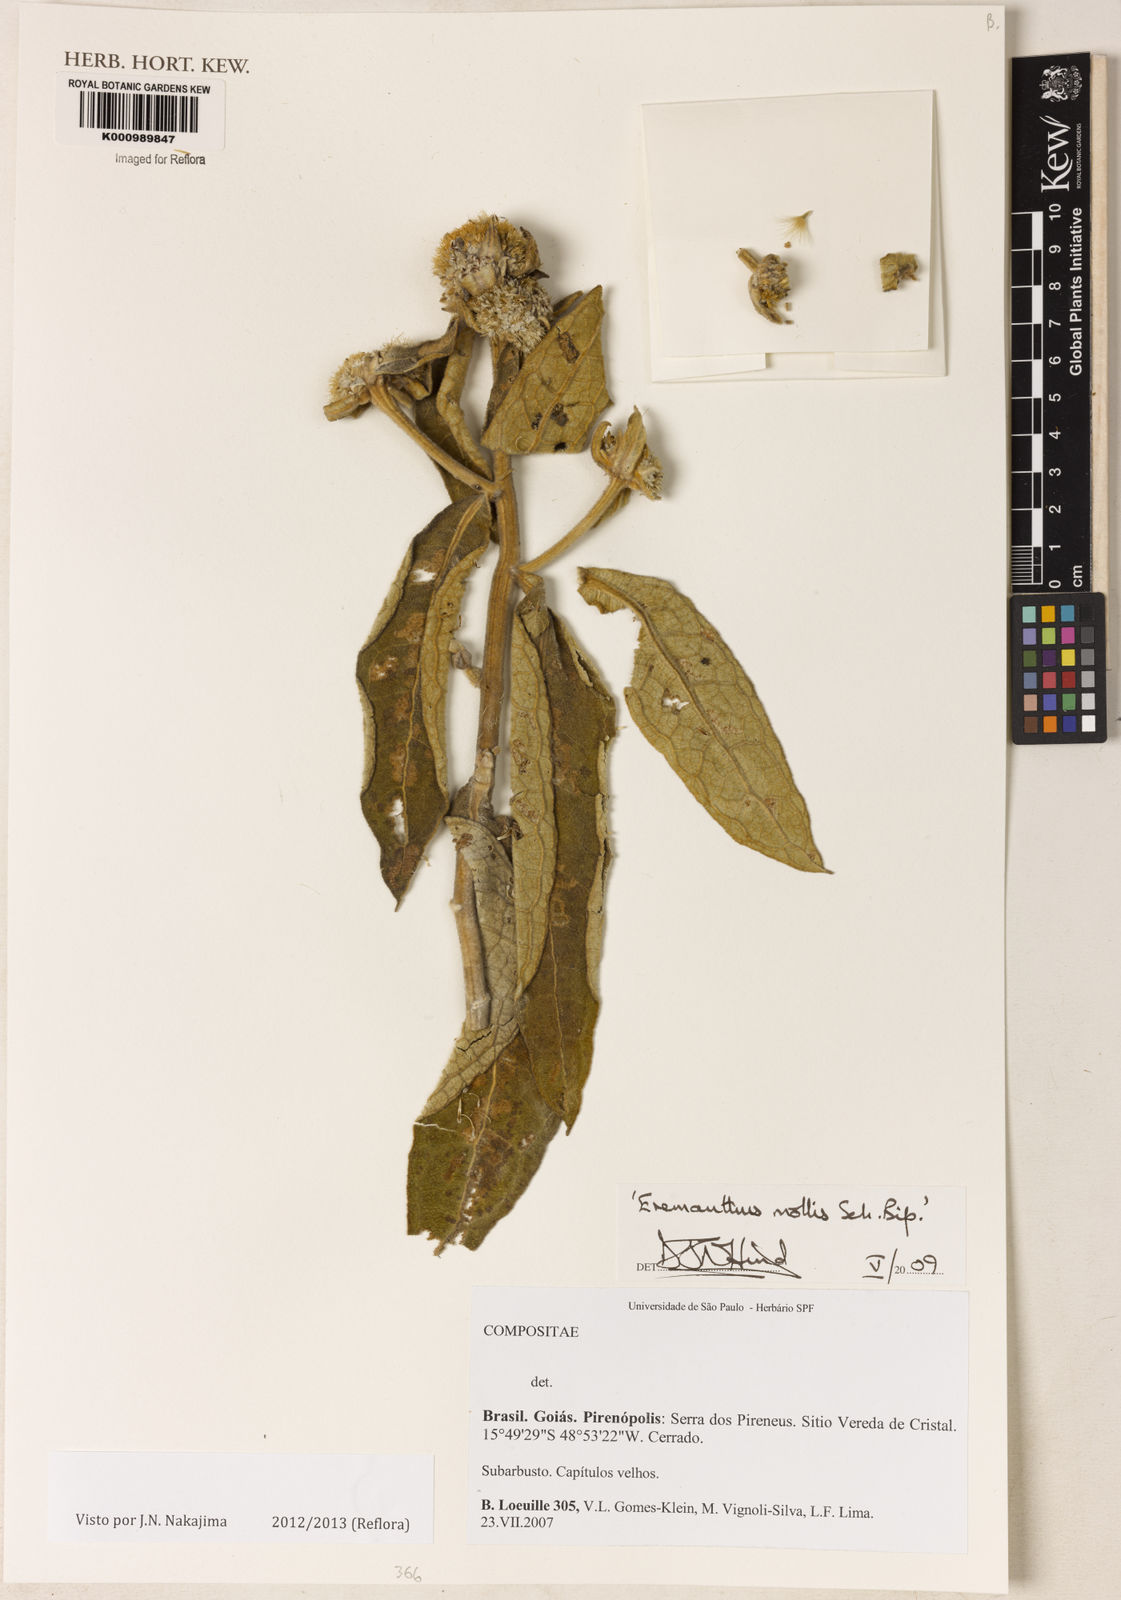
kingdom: Plantae
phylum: Tracheophyta
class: Magnoliopsida
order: Asterales
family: Asteraceae
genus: Eremanthus
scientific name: Eremanthus mollis
